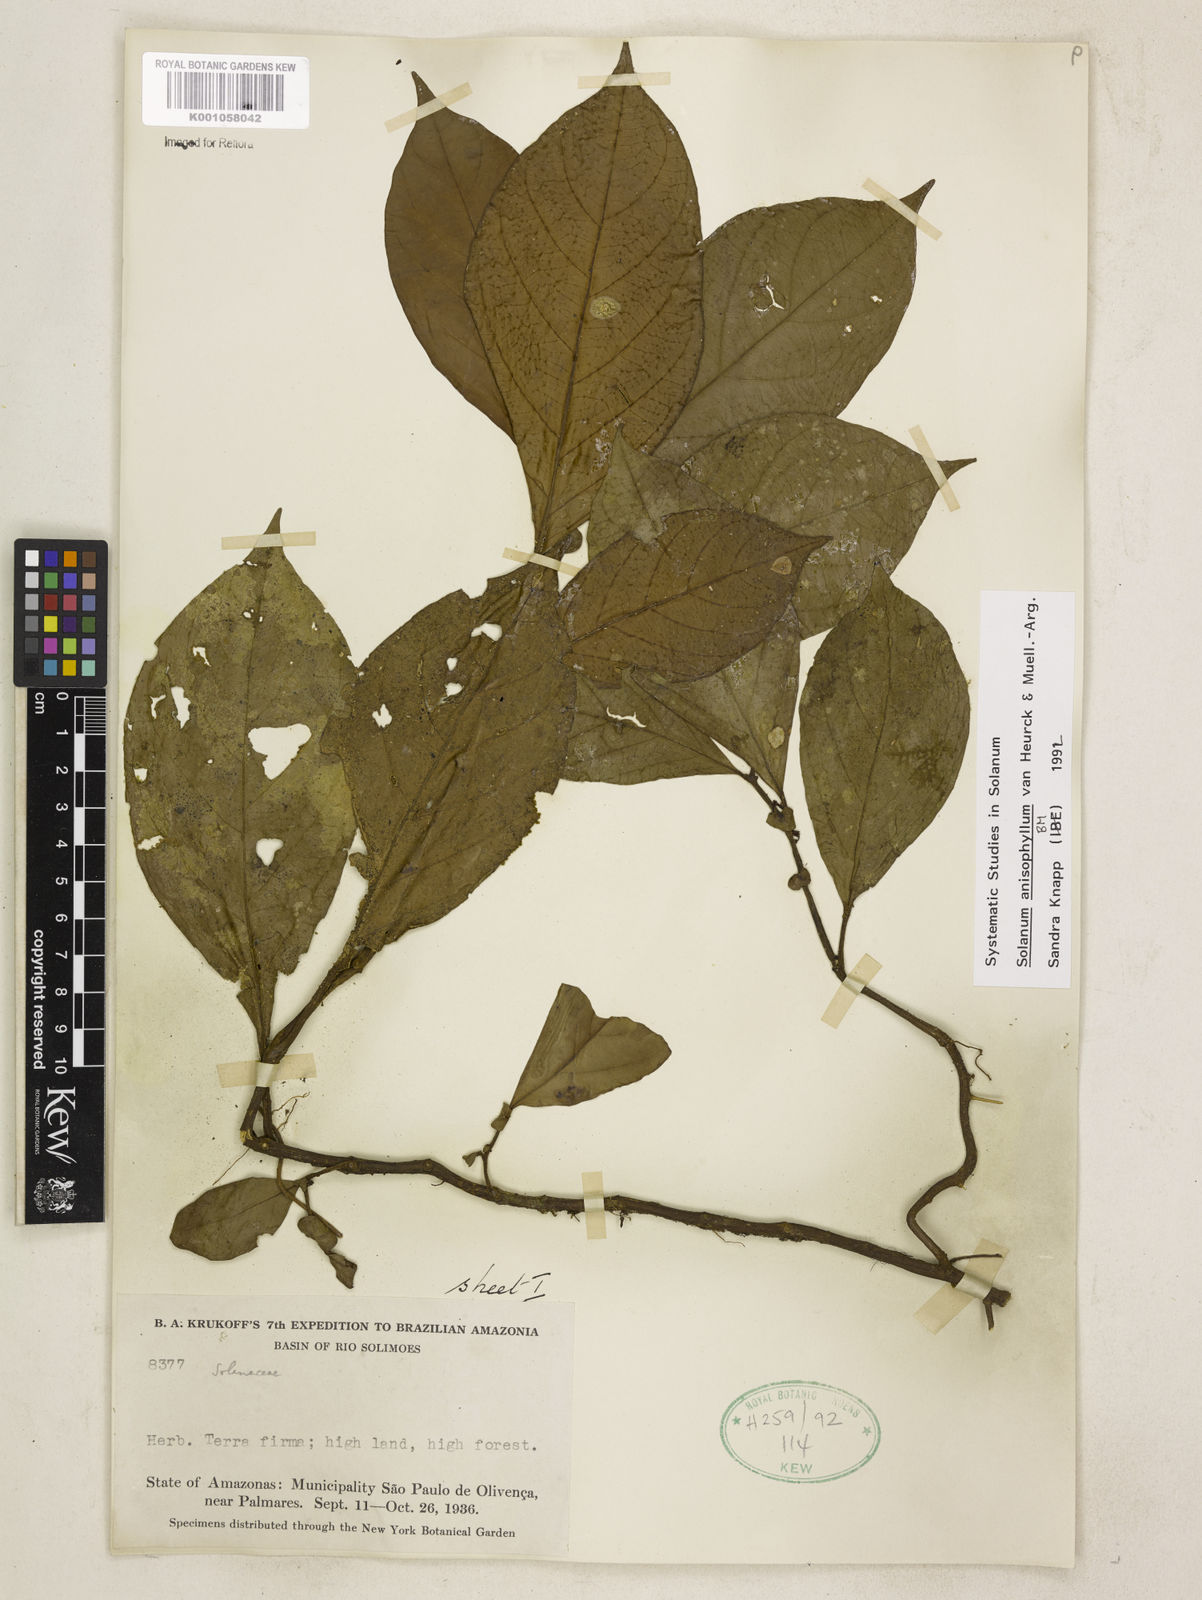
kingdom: Plantae
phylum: Tracheophyta
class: Magnoliopsida
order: Solanales
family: Solanaceae
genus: Solanum
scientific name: Solanum anisophyllum
